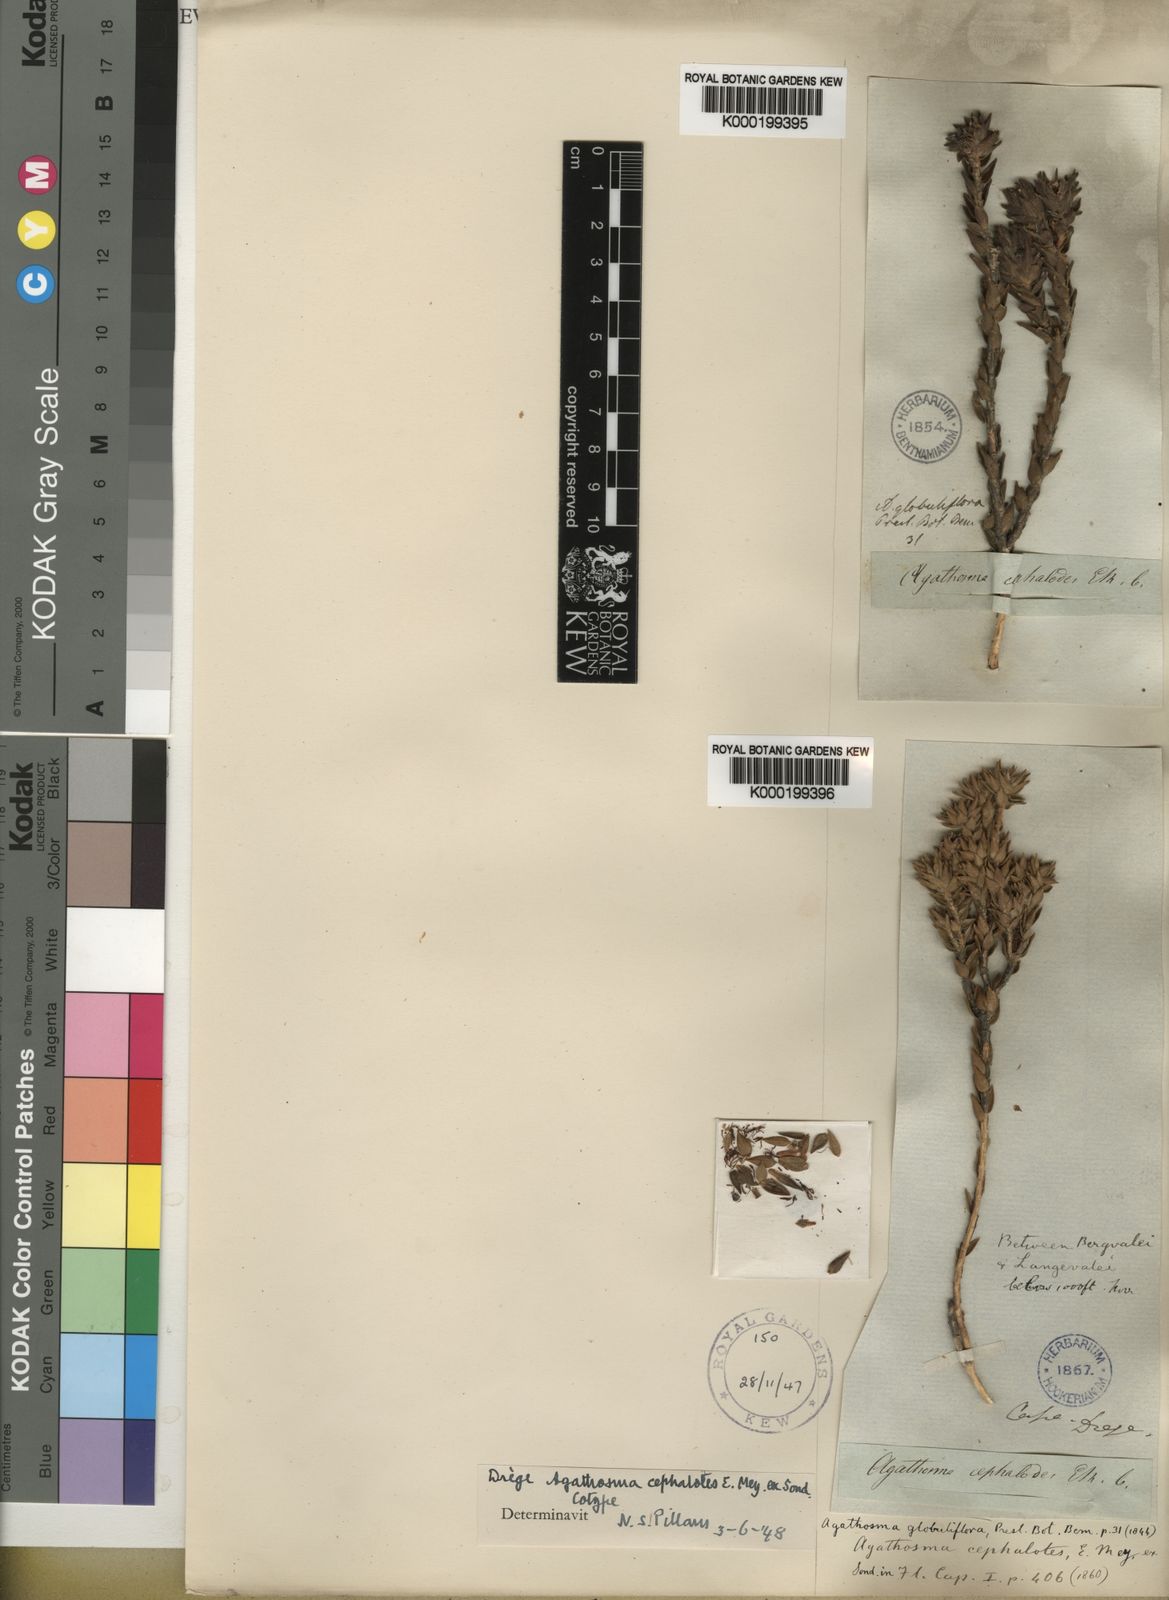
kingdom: Plantae
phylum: Tracheophyta
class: Magnoliopsida
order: Sapindales
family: Rutaceae
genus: Agathosma
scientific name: Agathosma
